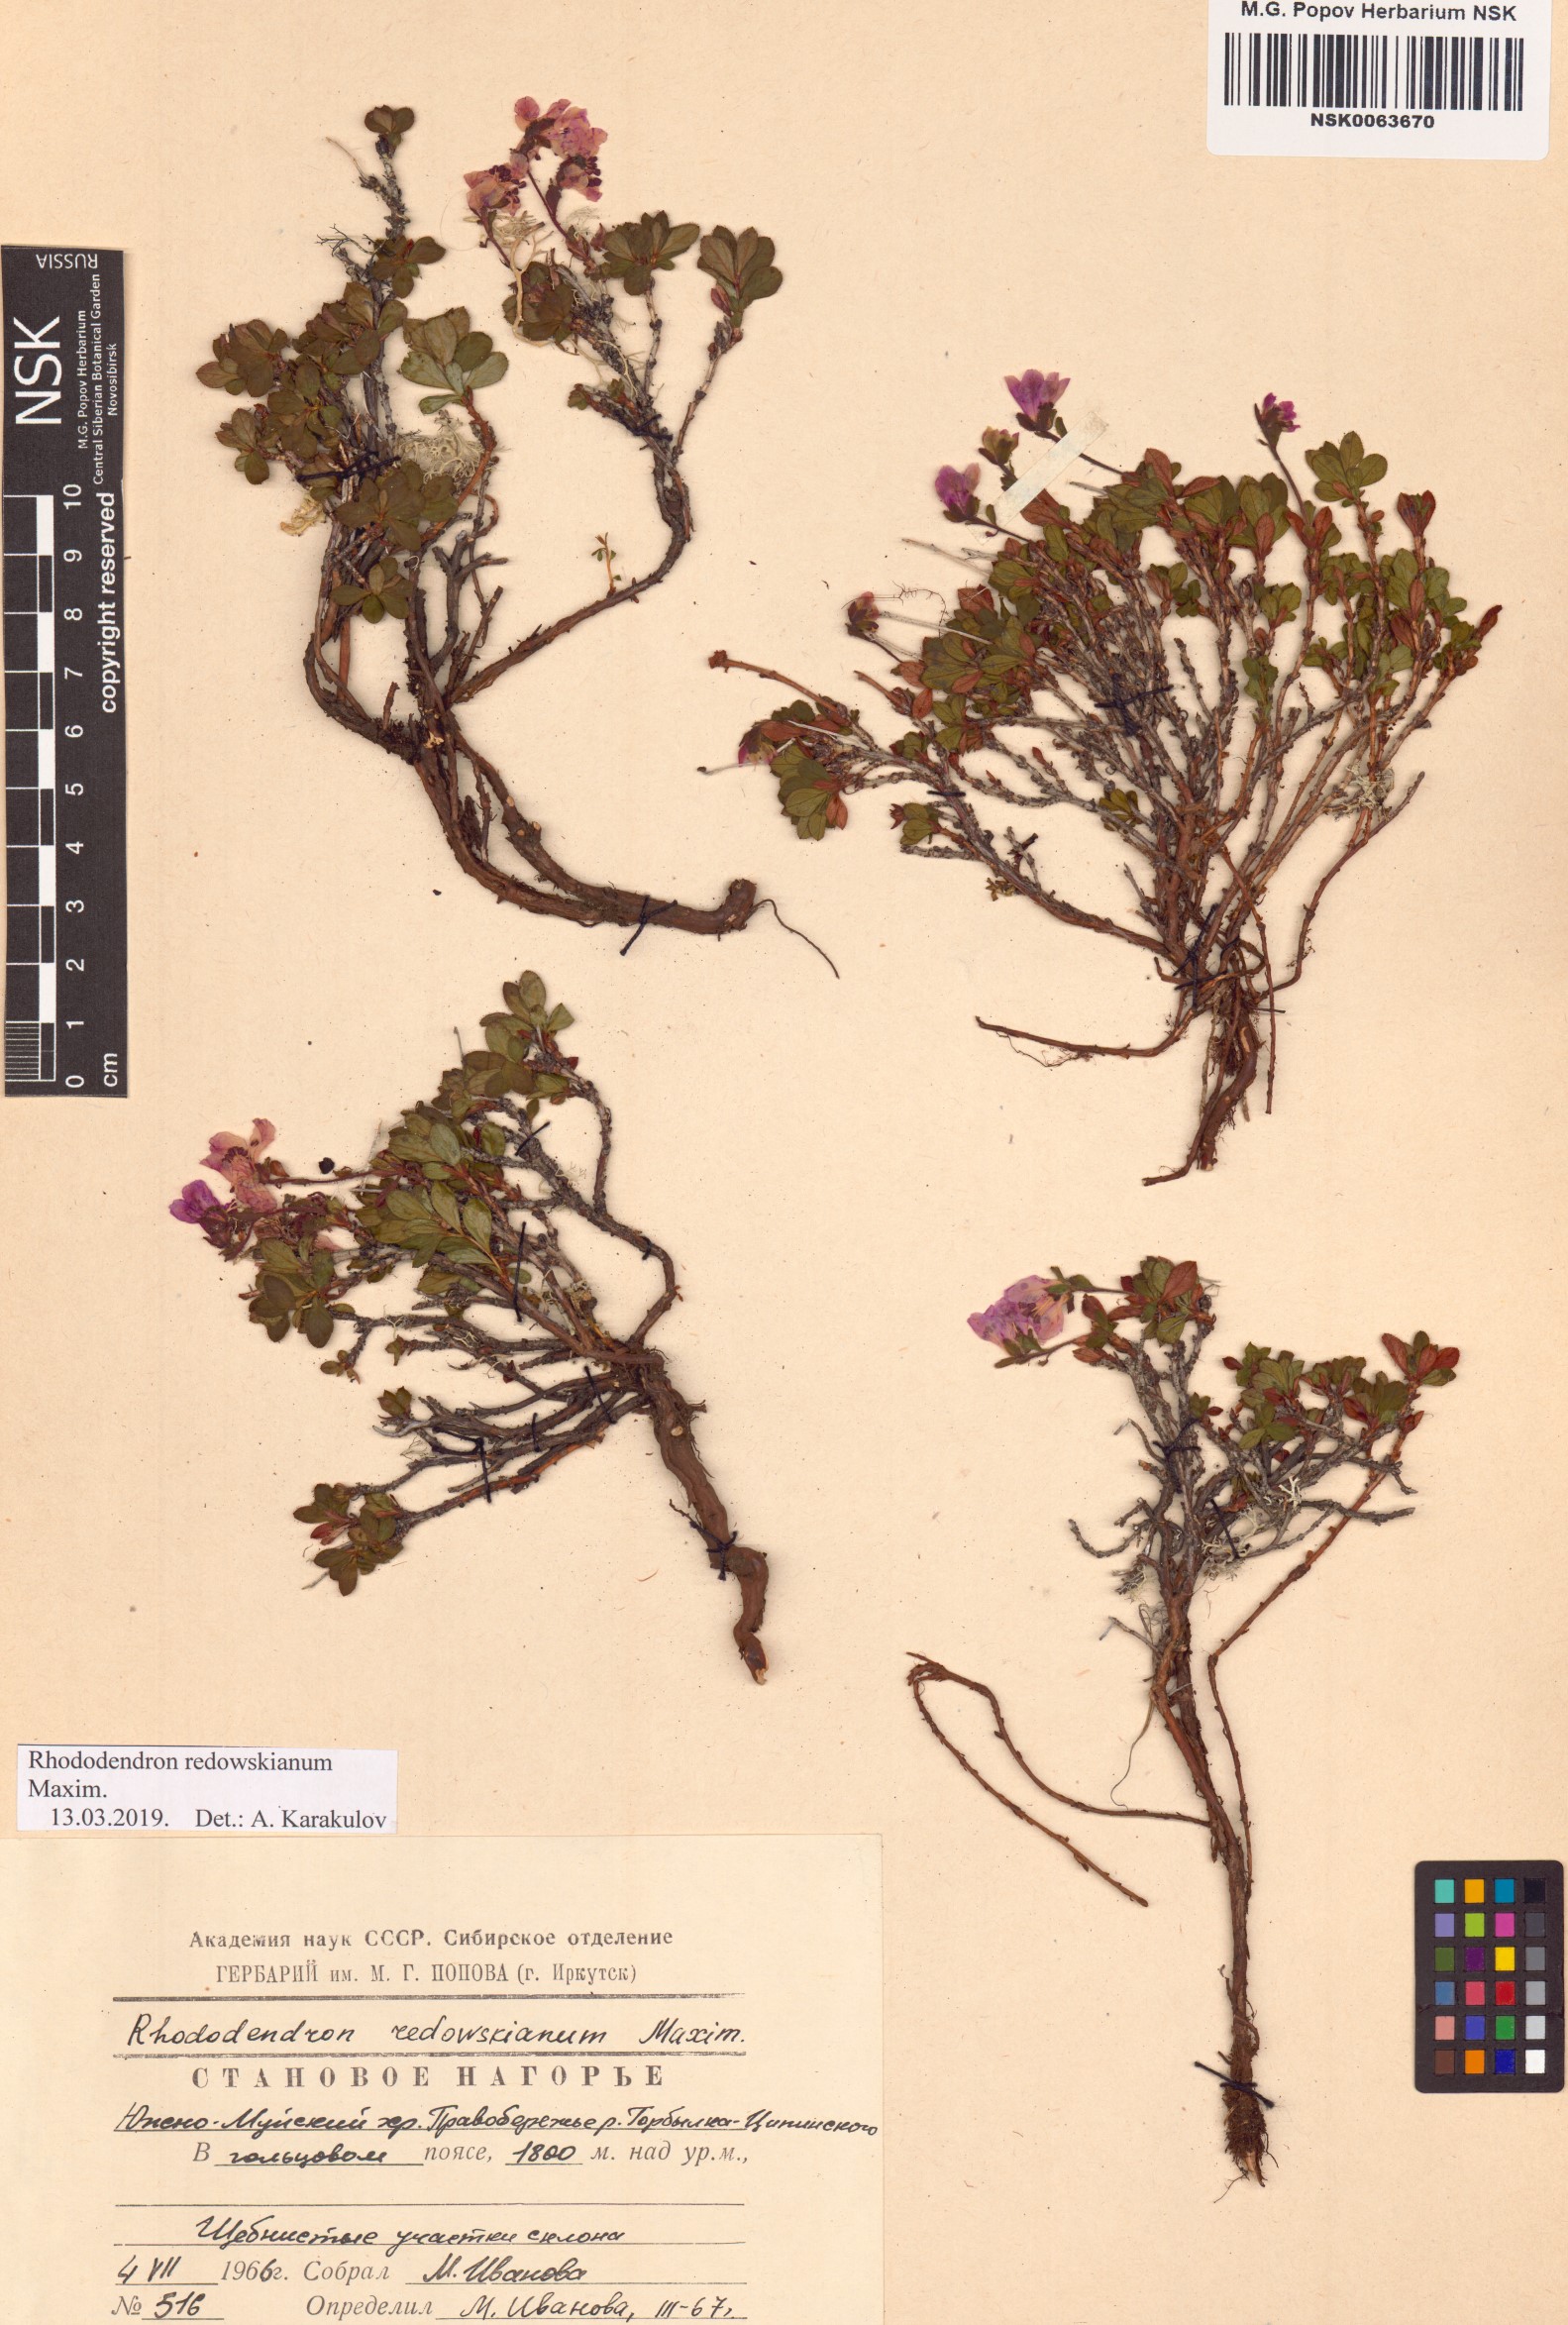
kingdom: Plantae
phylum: Tracheophyta
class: Magnoliopsida
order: Ericales
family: Ericaceae
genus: Rhododendron
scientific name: Rhododendron redowskianum
